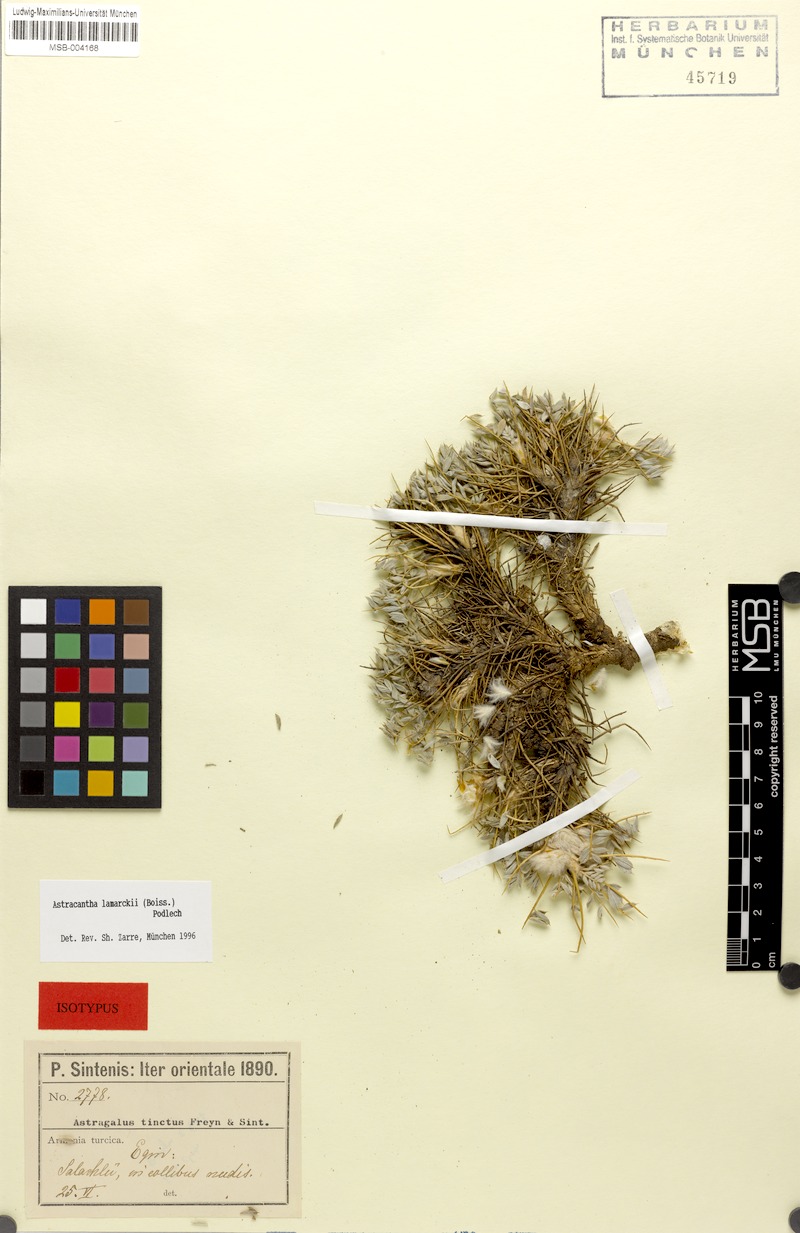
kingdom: Plantae
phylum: Tracheophyta
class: Magnoliopsida
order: Fabales
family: Fabaceae
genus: Astragalus
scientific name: Astragalus lamarckii
